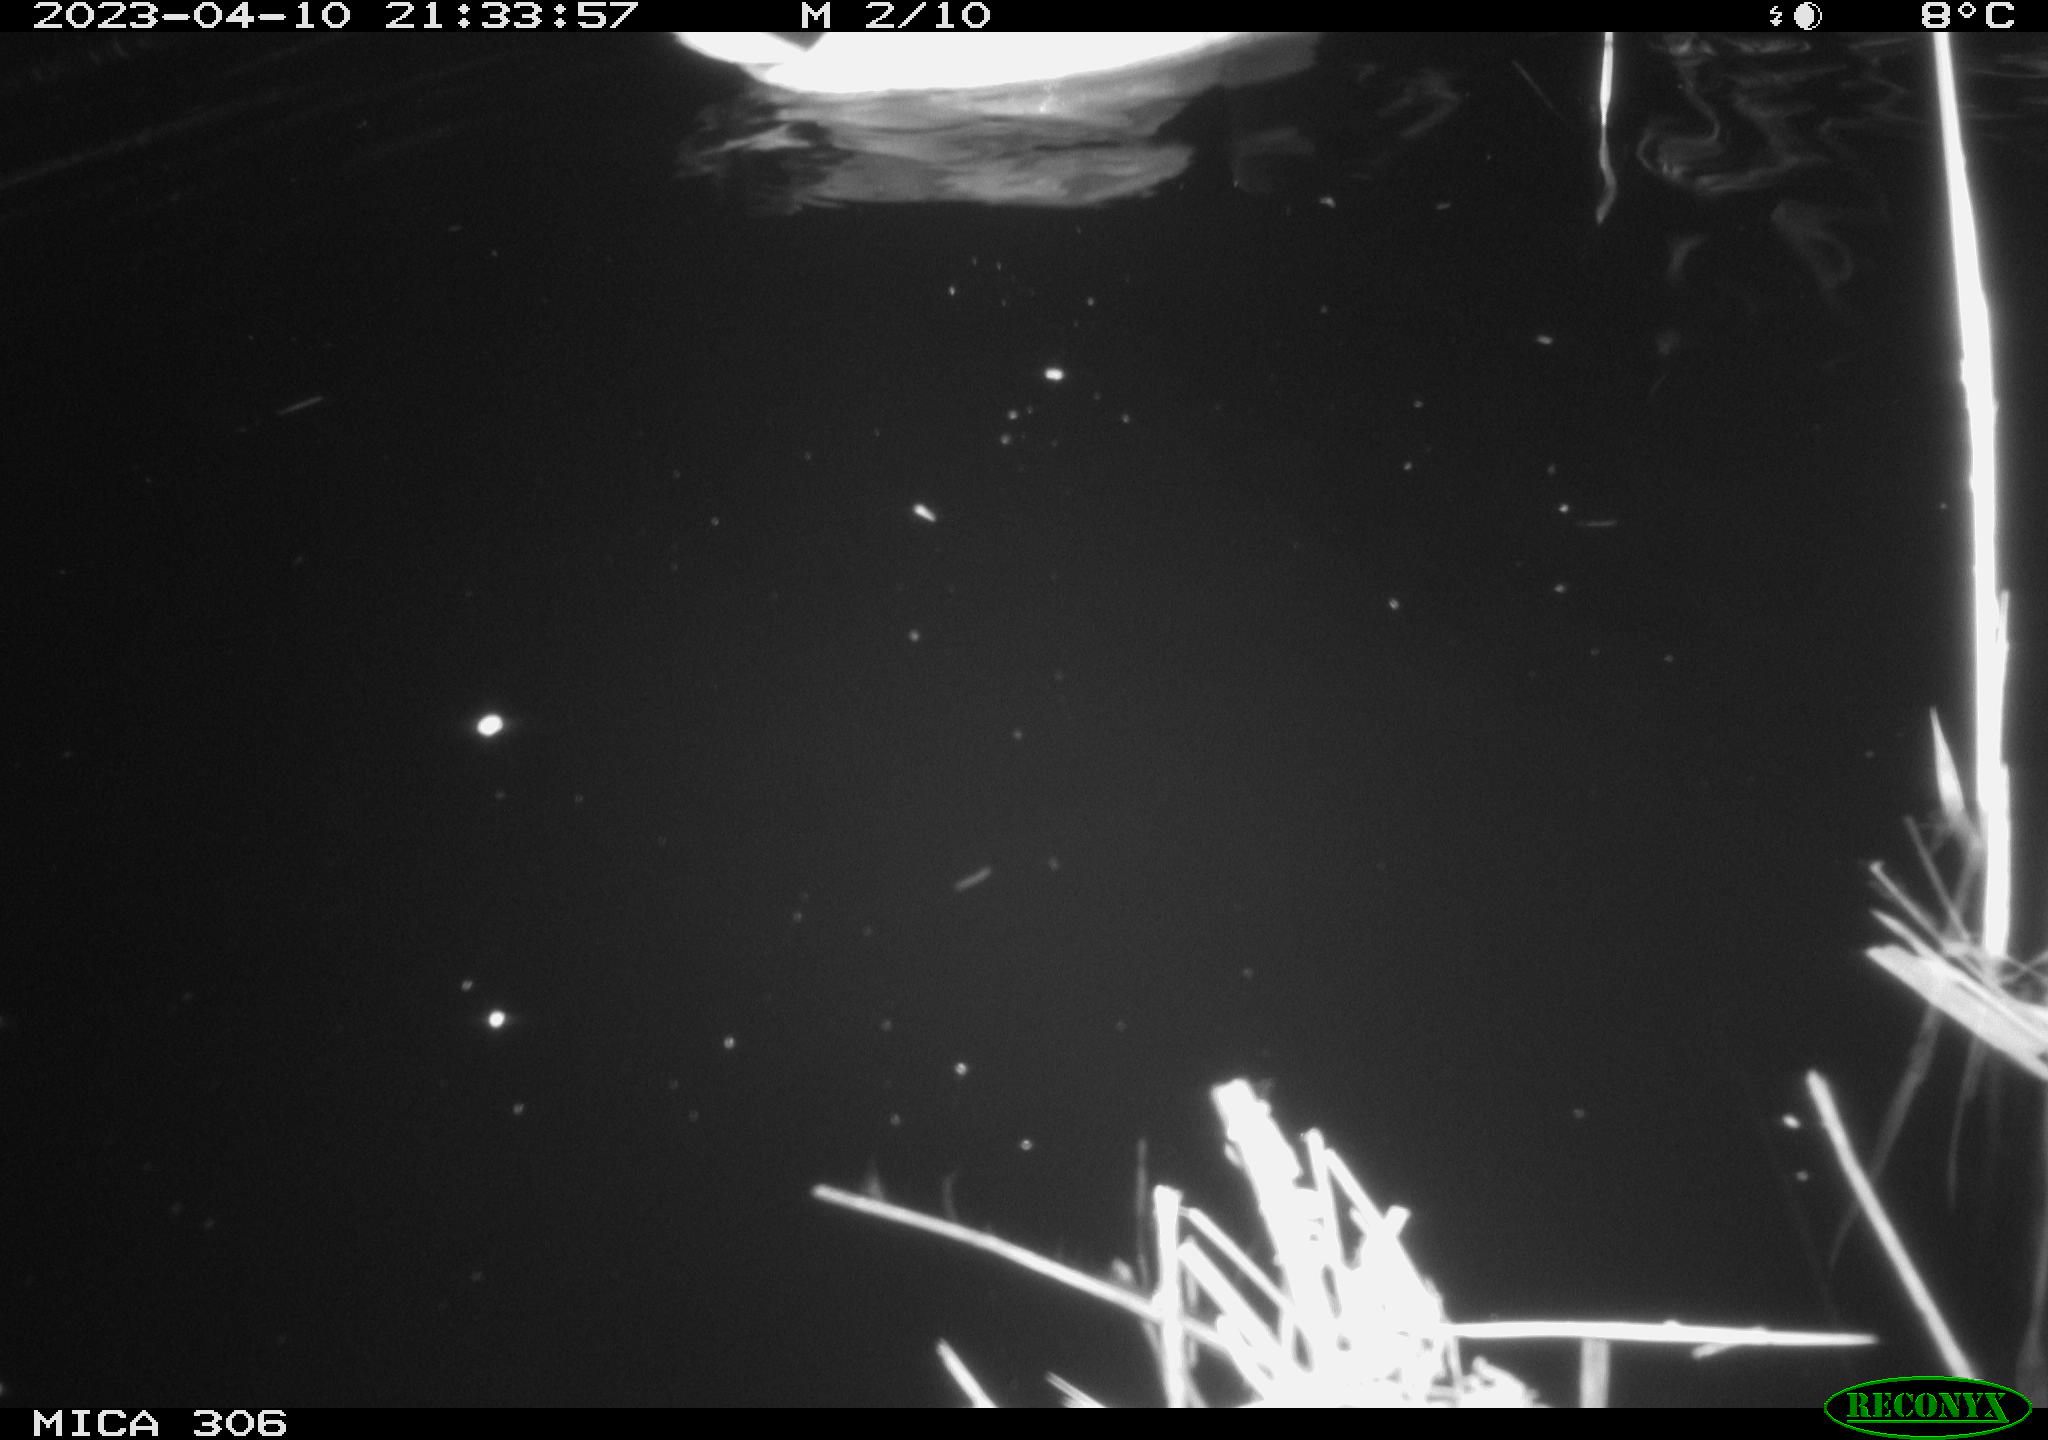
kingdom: Animalia
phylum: Chordata
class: Aves
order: Anseriformes
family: Anatidae
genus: Anas
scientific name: Anas
